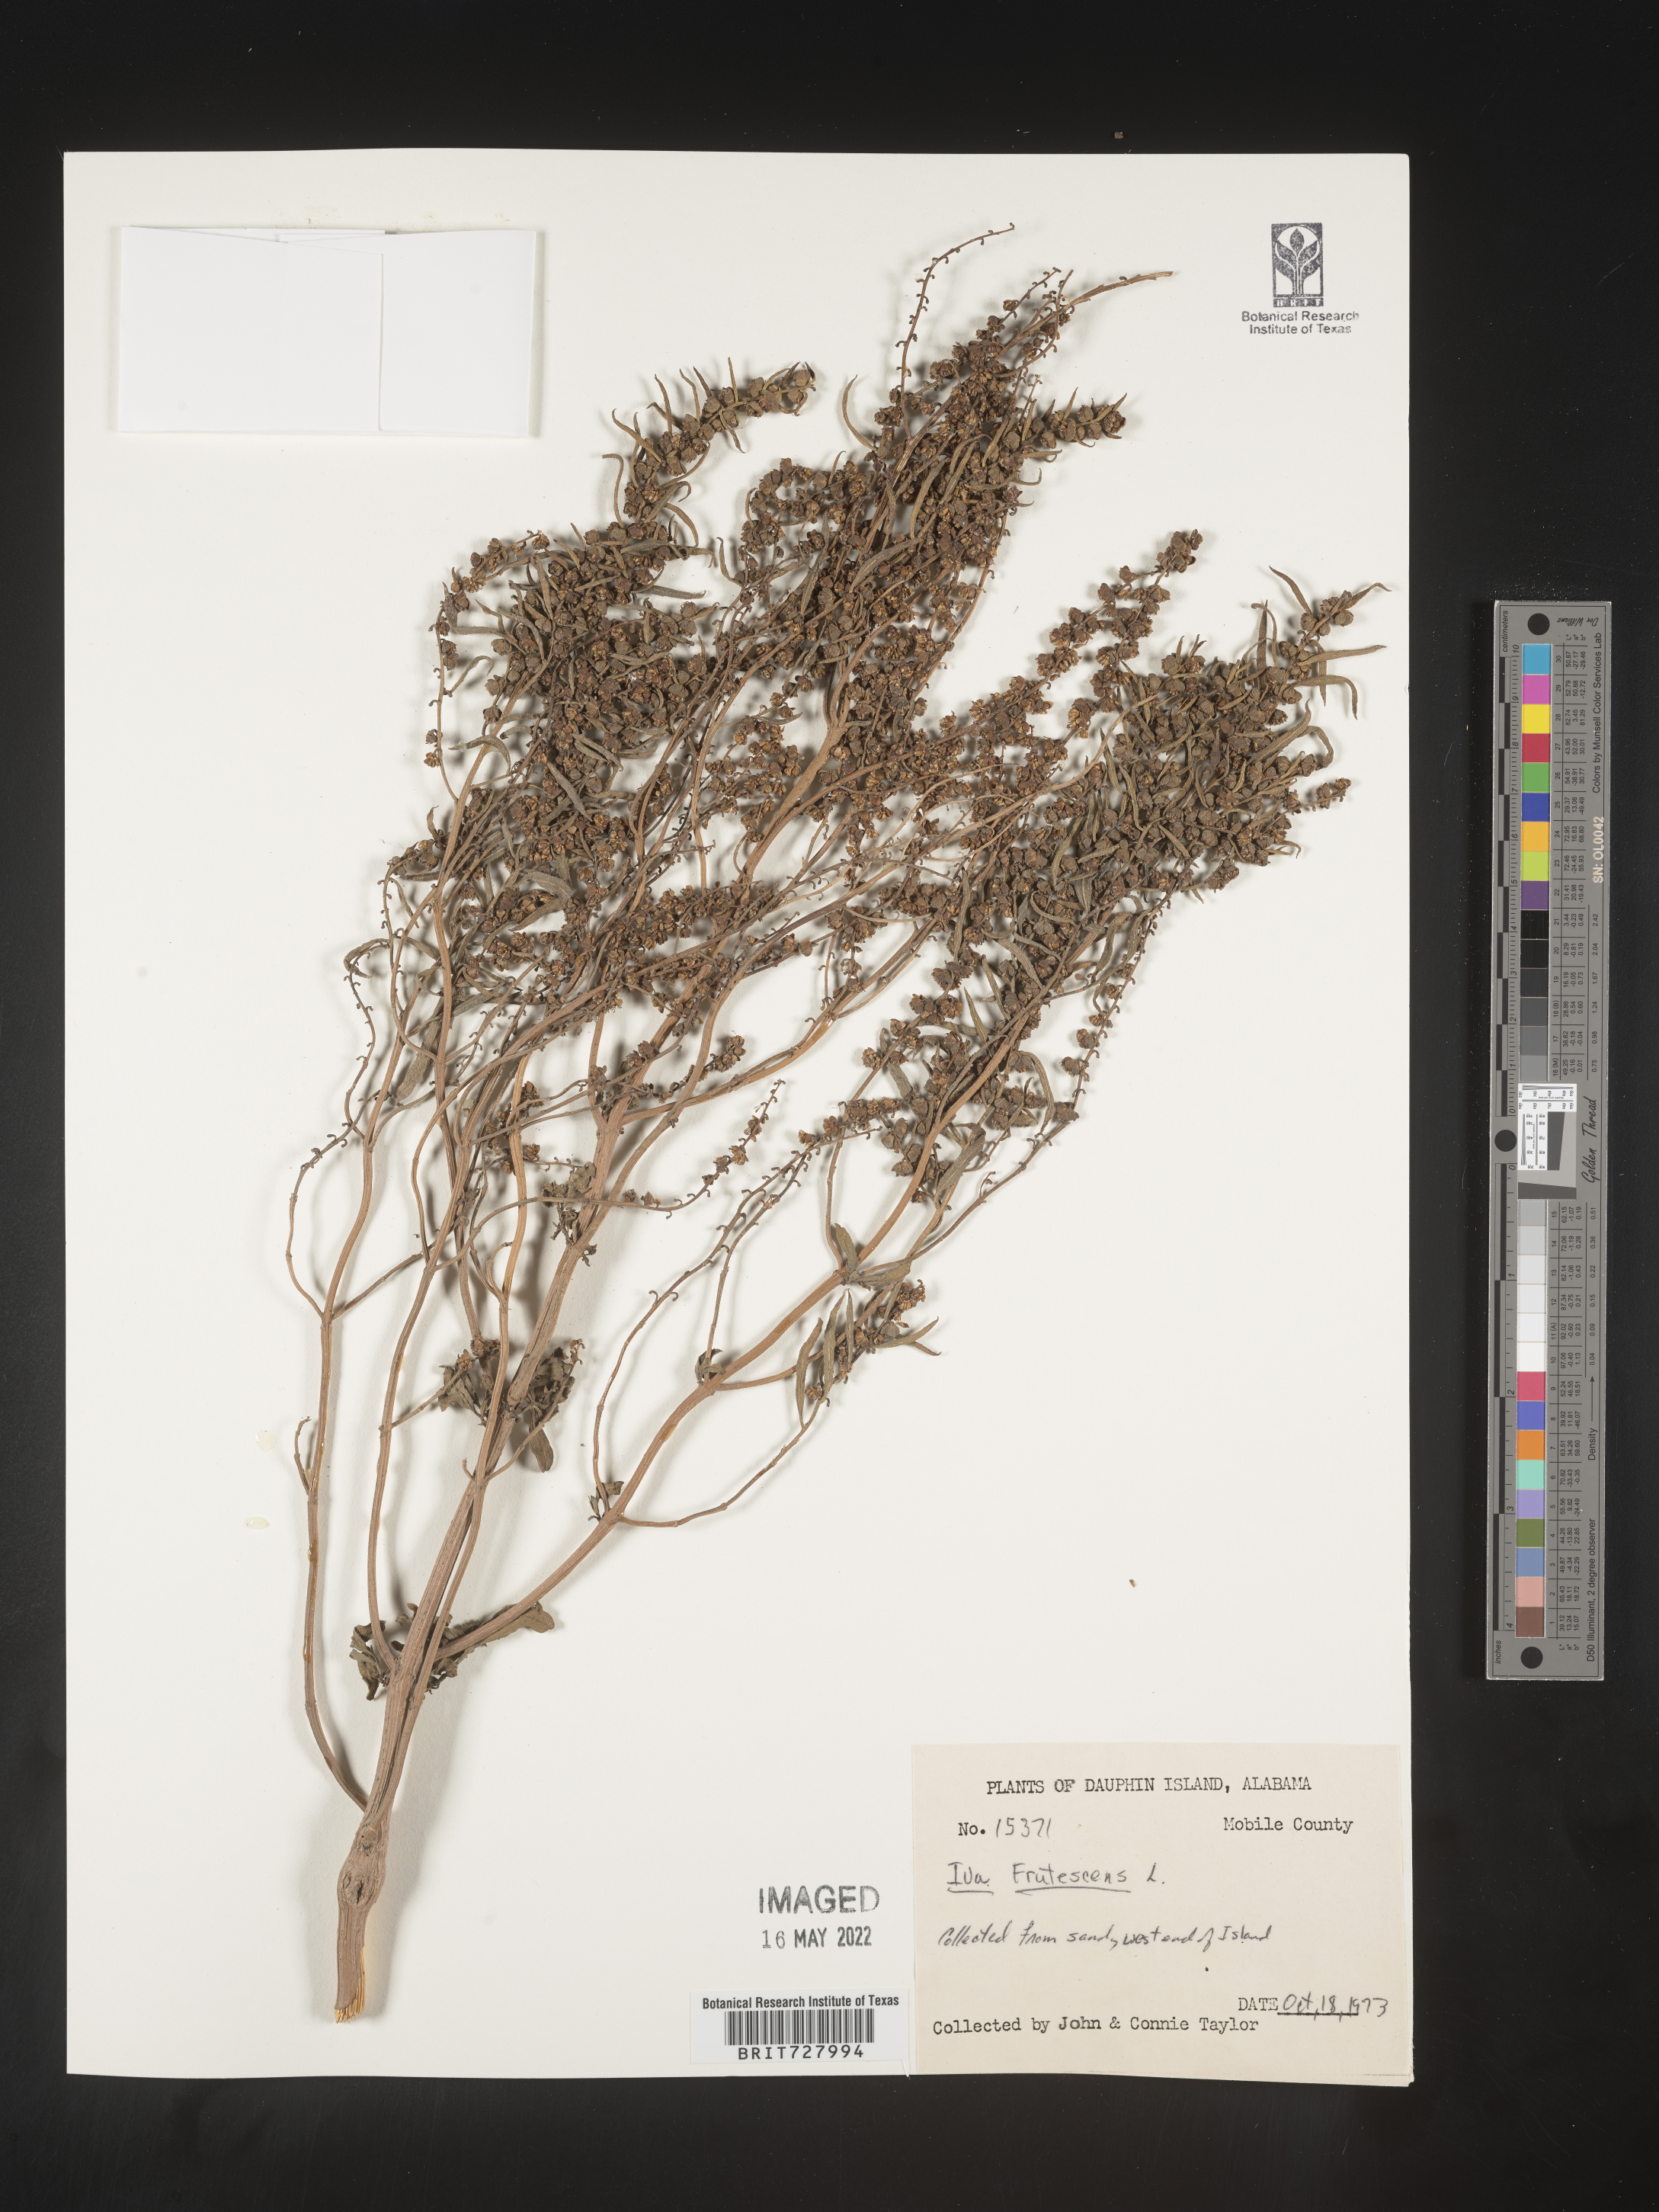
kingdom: Plantae
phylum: Tracheophyta
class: Magnoliopsida
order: Asterales
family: Asteraceae
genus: Iva
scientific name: Iva frutescens
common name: Big-leaved marsh-elder
